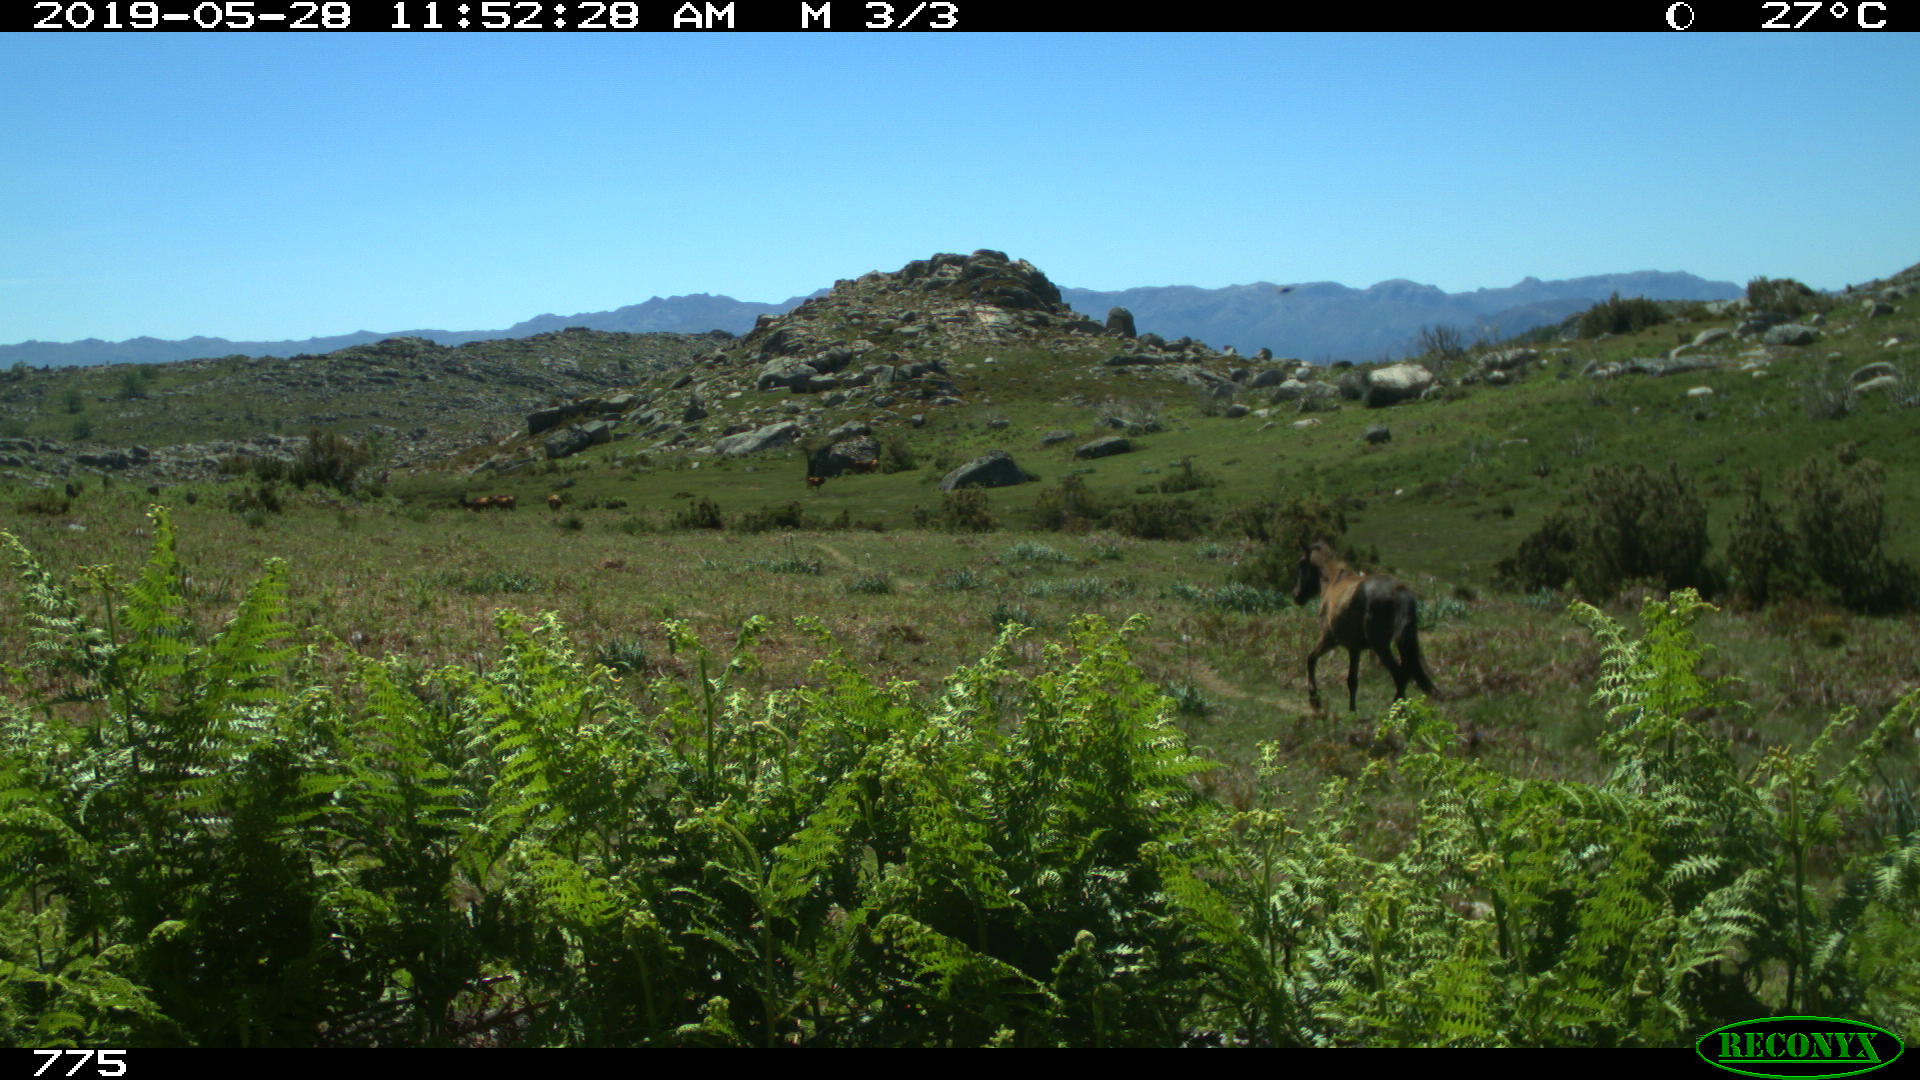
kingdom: Animalia
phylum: Chordata
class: Mammalia
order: Perissodactyla
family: Equidae
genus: Equus
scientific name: Equus caballus
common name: Horse
